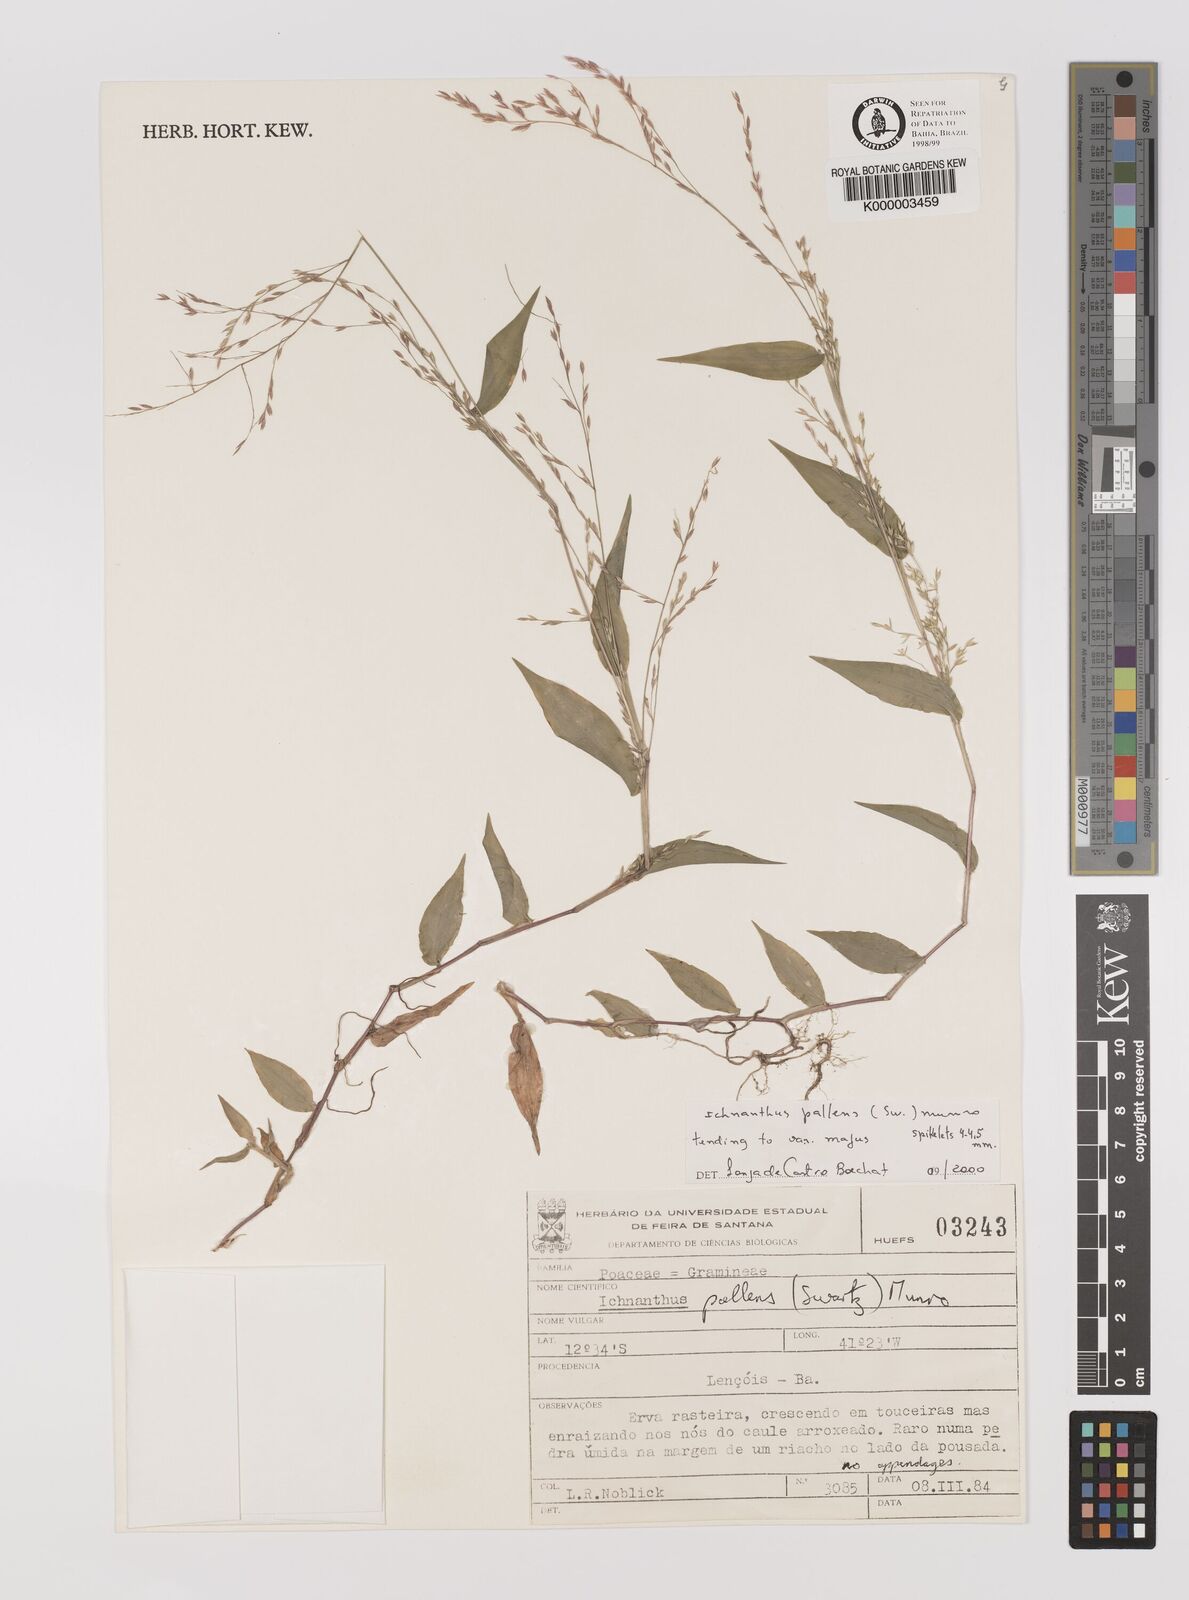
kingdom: Plantae
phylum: Tracheophyta
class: Liliopsida
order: Poales
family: Poaceae
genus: Ichnanthus
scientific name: Ichnanthus
